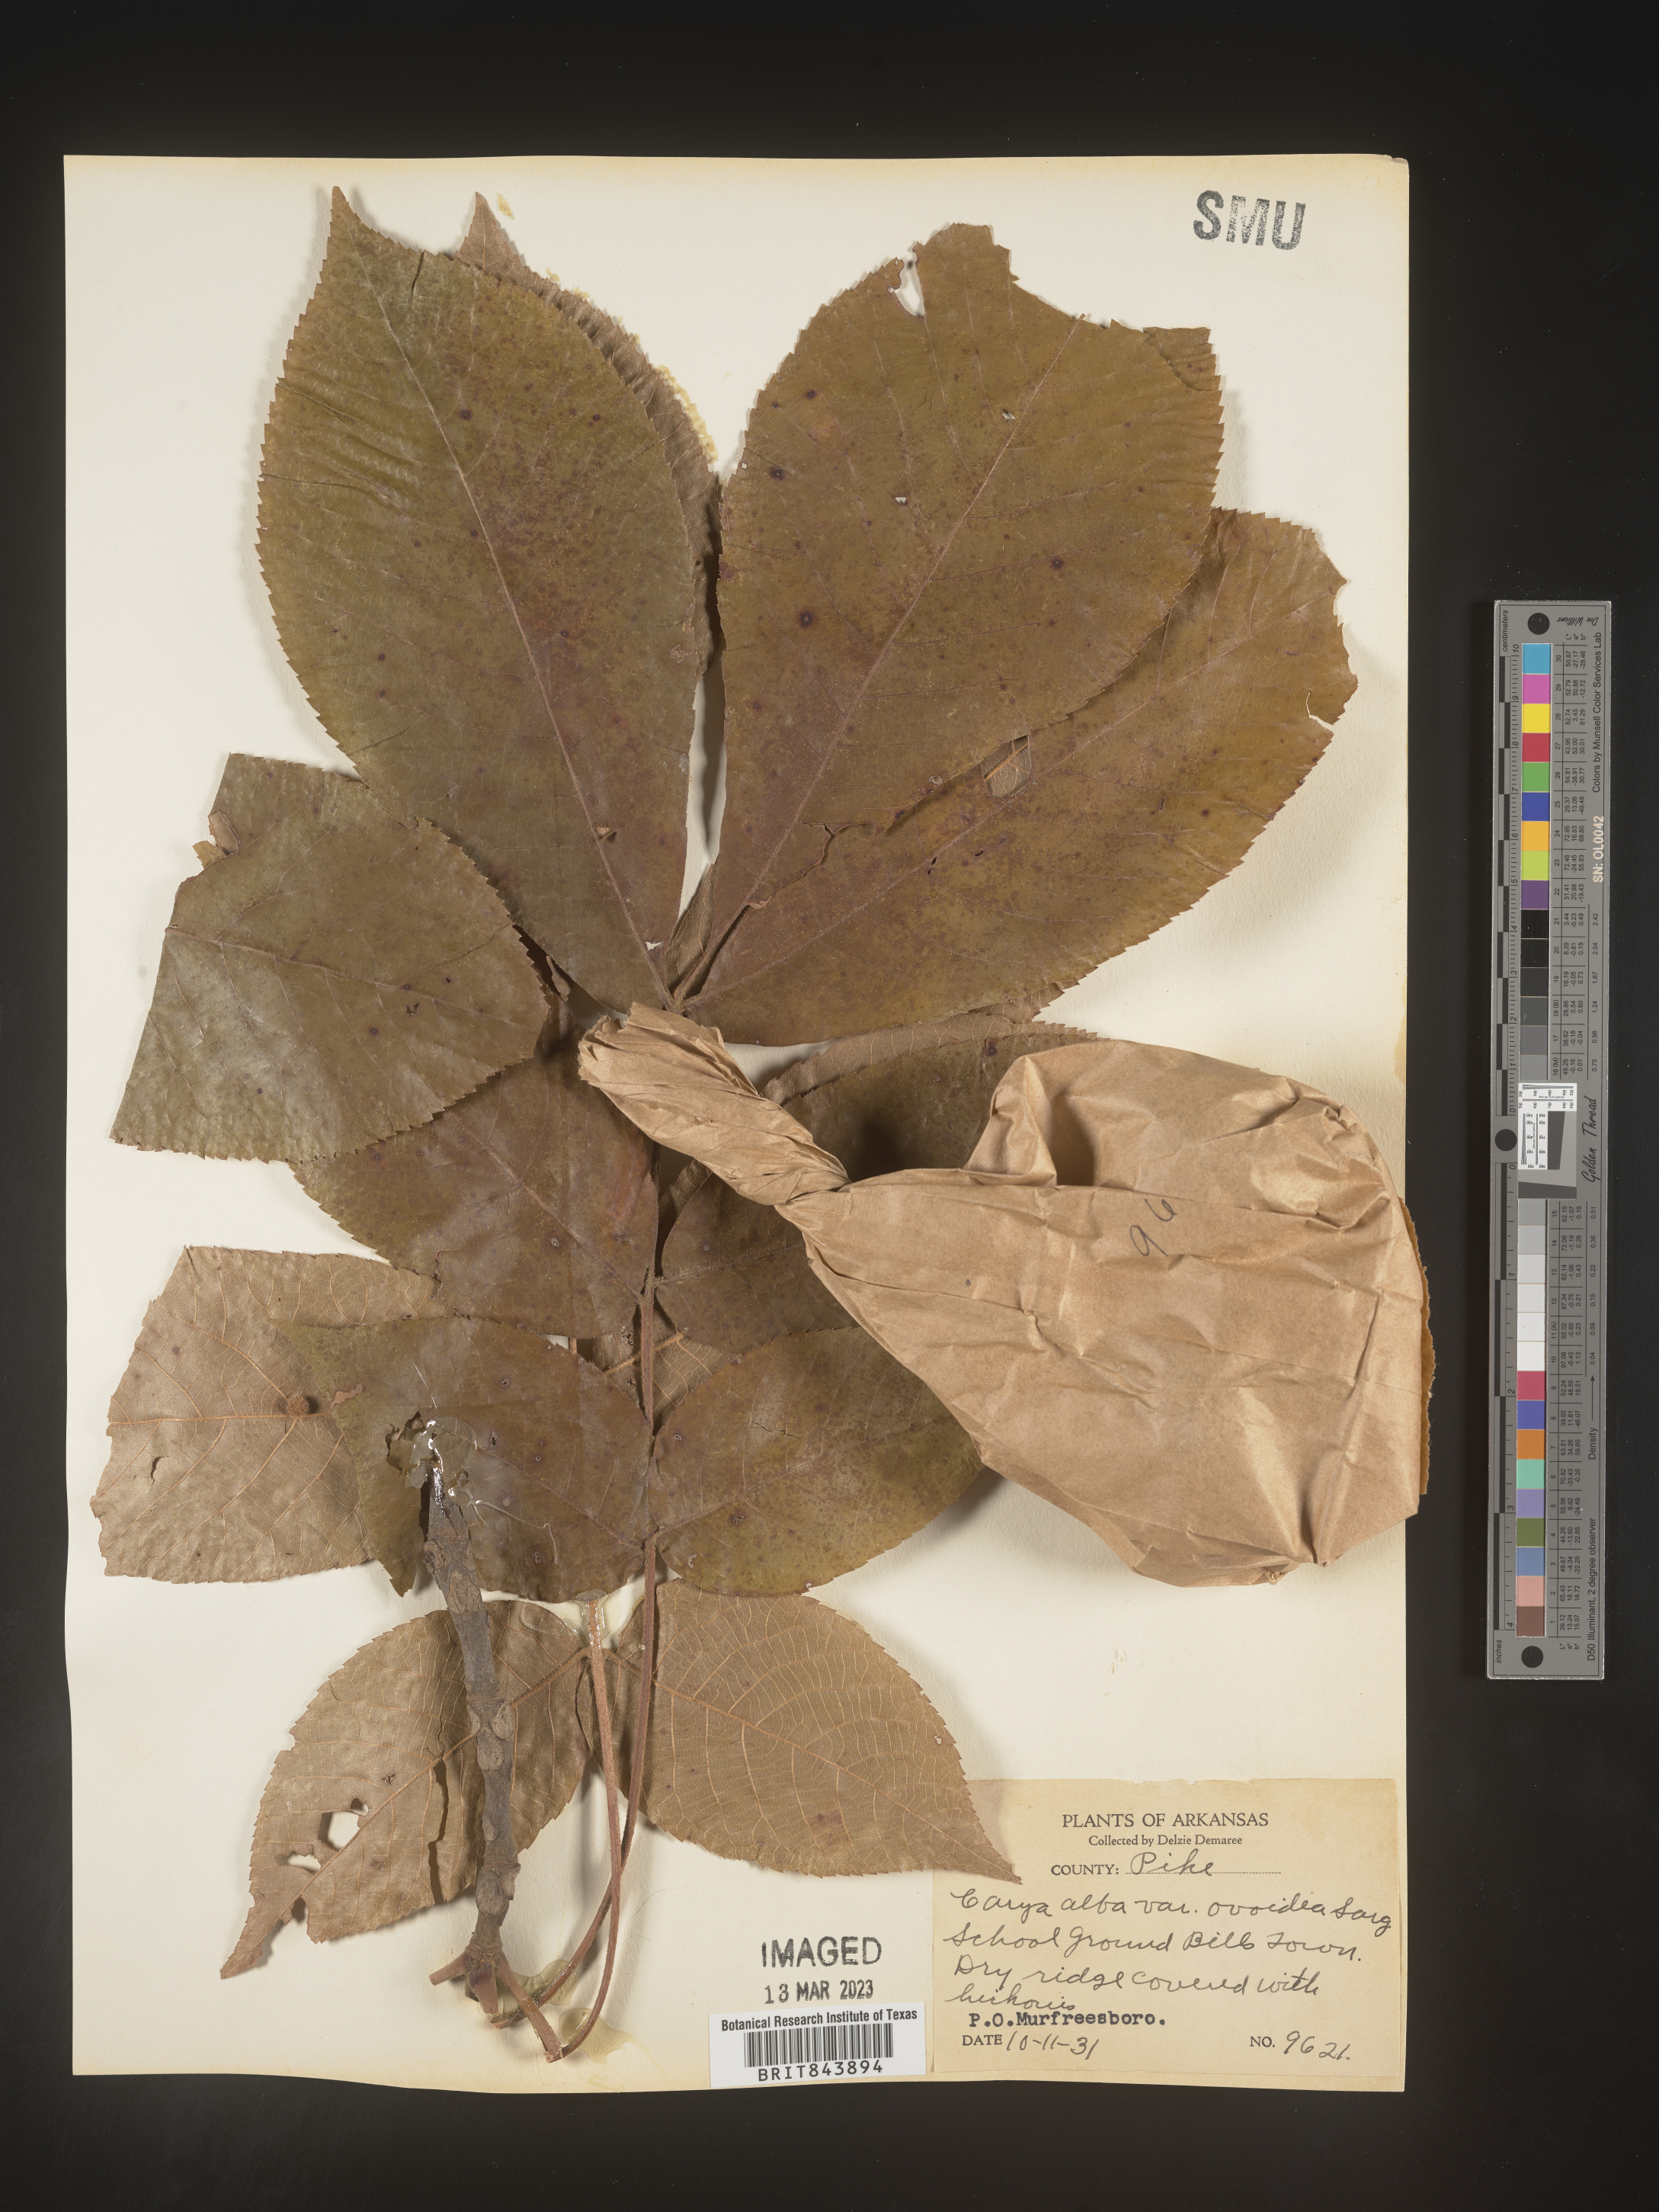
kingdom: Plantae
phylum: Tracheophyta
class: Magnoliopsida
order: Fagales
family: Juglandaceae
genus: Carya
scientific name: Carya alba
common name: Mockernut hickory
